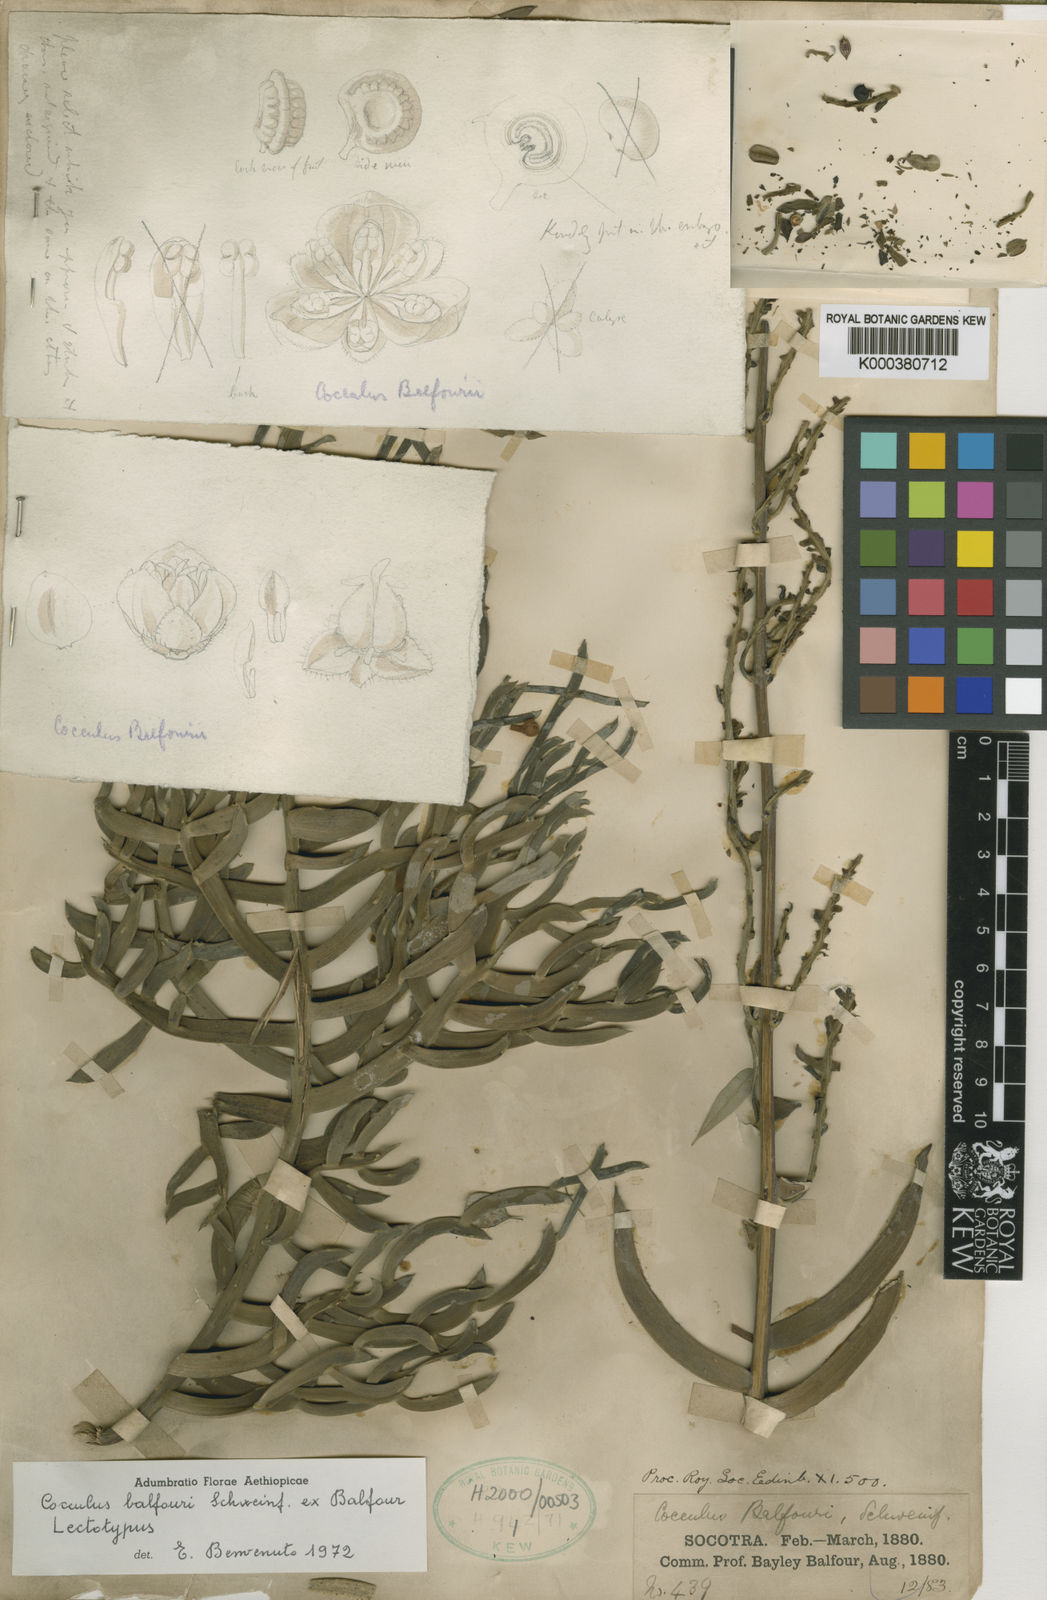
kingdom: Plantae
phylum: Tracheophyta
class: Magnoliopsida
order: Ranunculales
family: Menispermaceae
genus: Cocculus
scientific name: Cocculus
